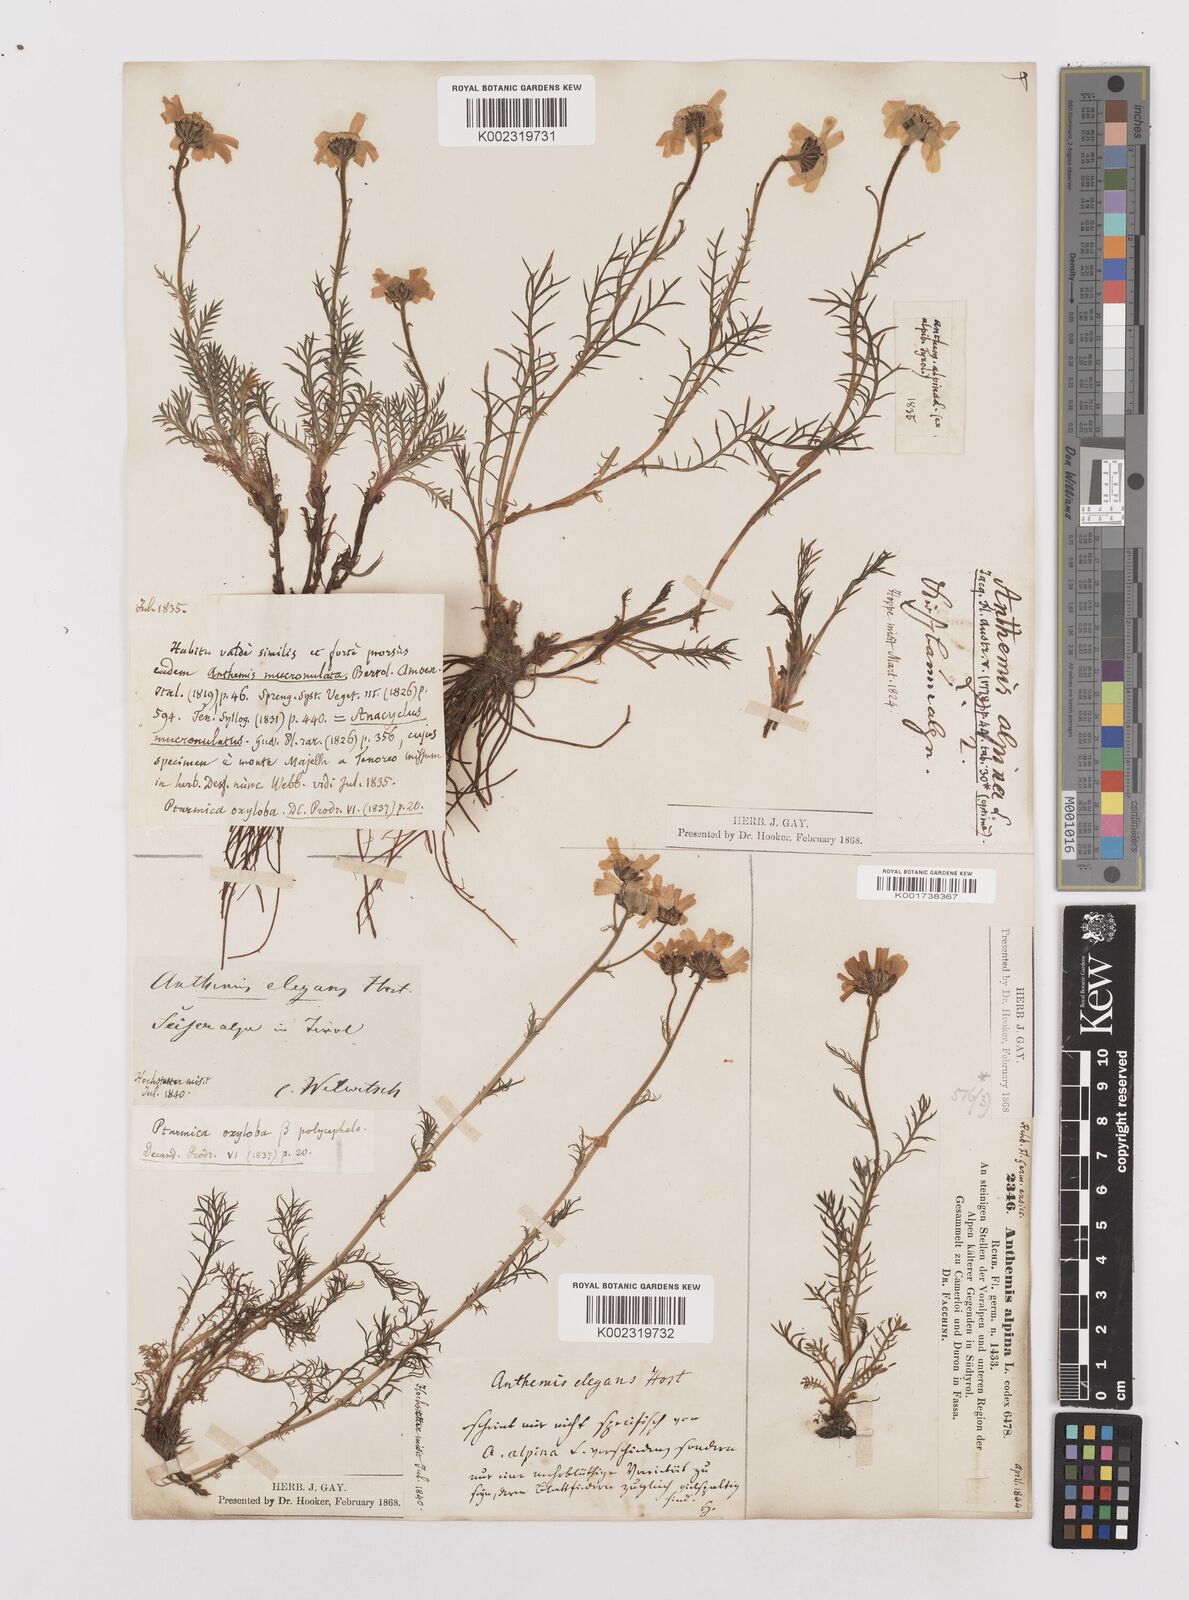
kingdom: Plantae
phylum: Tracheophyta
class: Magnoliopsida
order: Asterales
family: Asteraceae
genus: Achillea
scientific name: Achillea oxyloba
